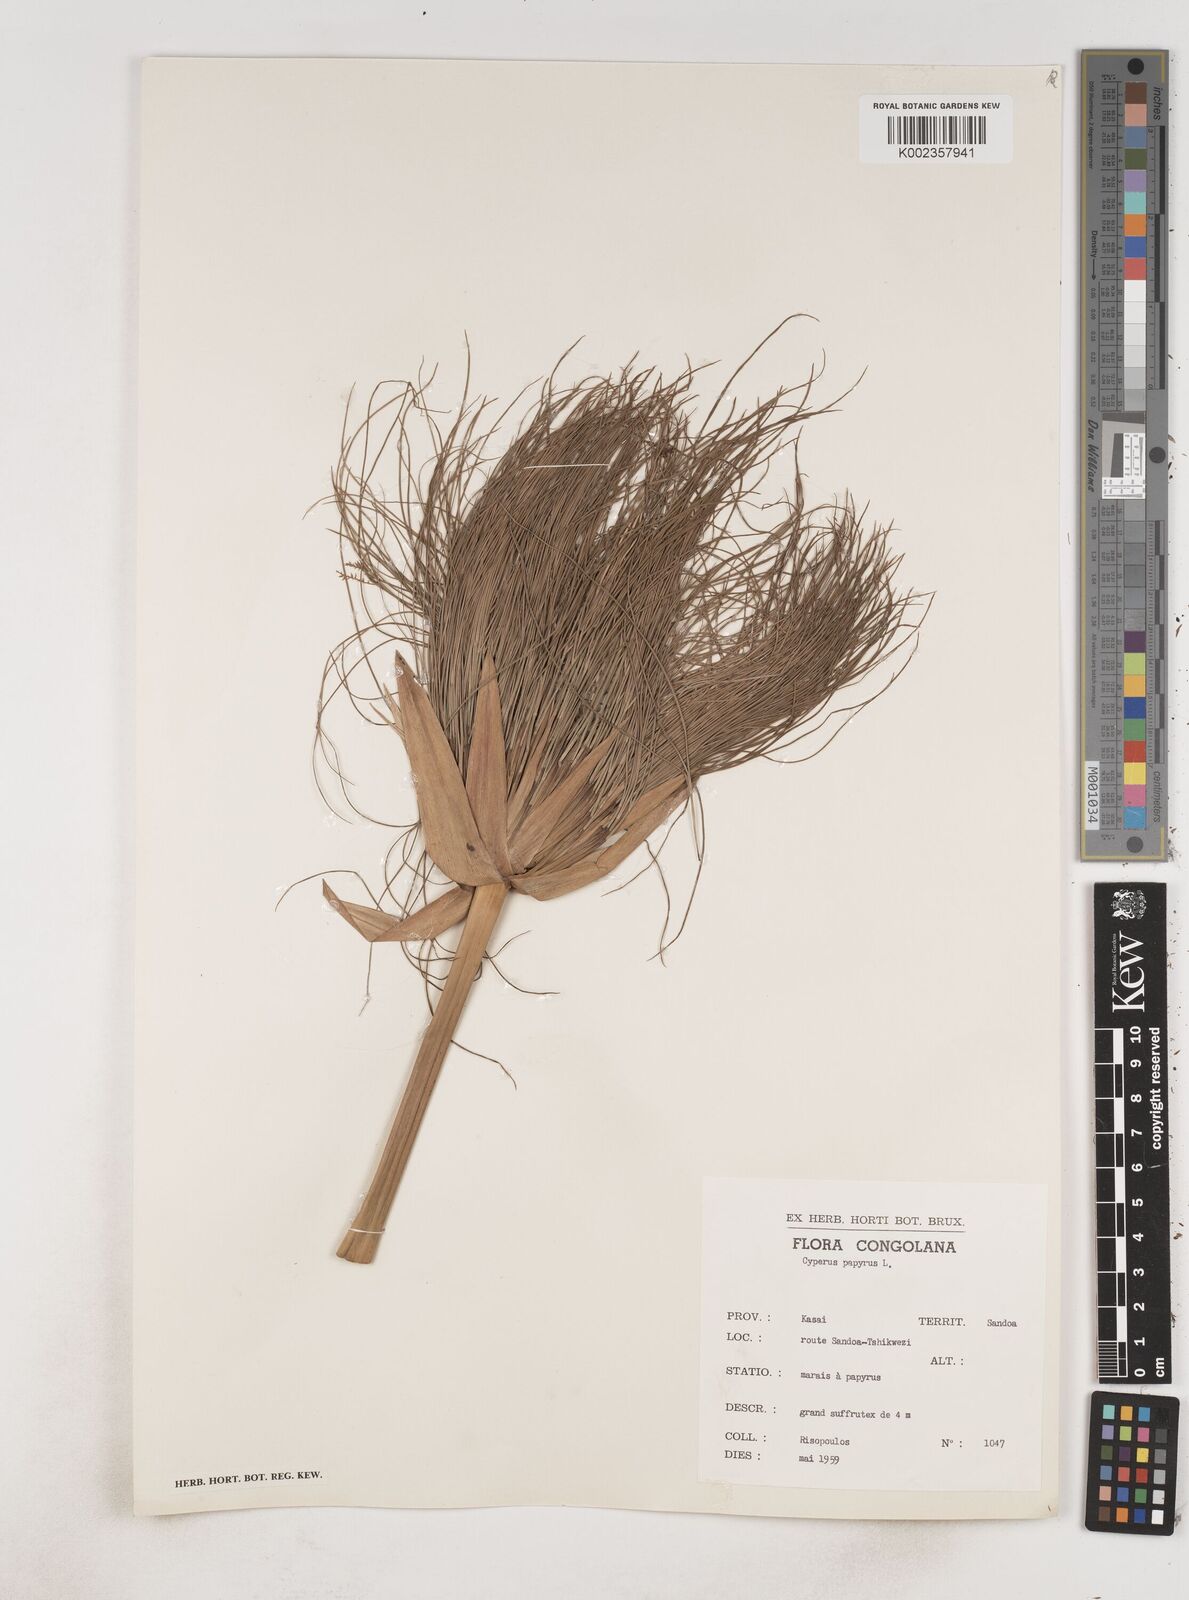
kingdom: Plantae
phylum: Tracheophyta
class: Liliopsida
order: Poales
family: Cyperaceae
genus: Cyperus
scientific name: Cyperus papyrus
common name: Papyrus
